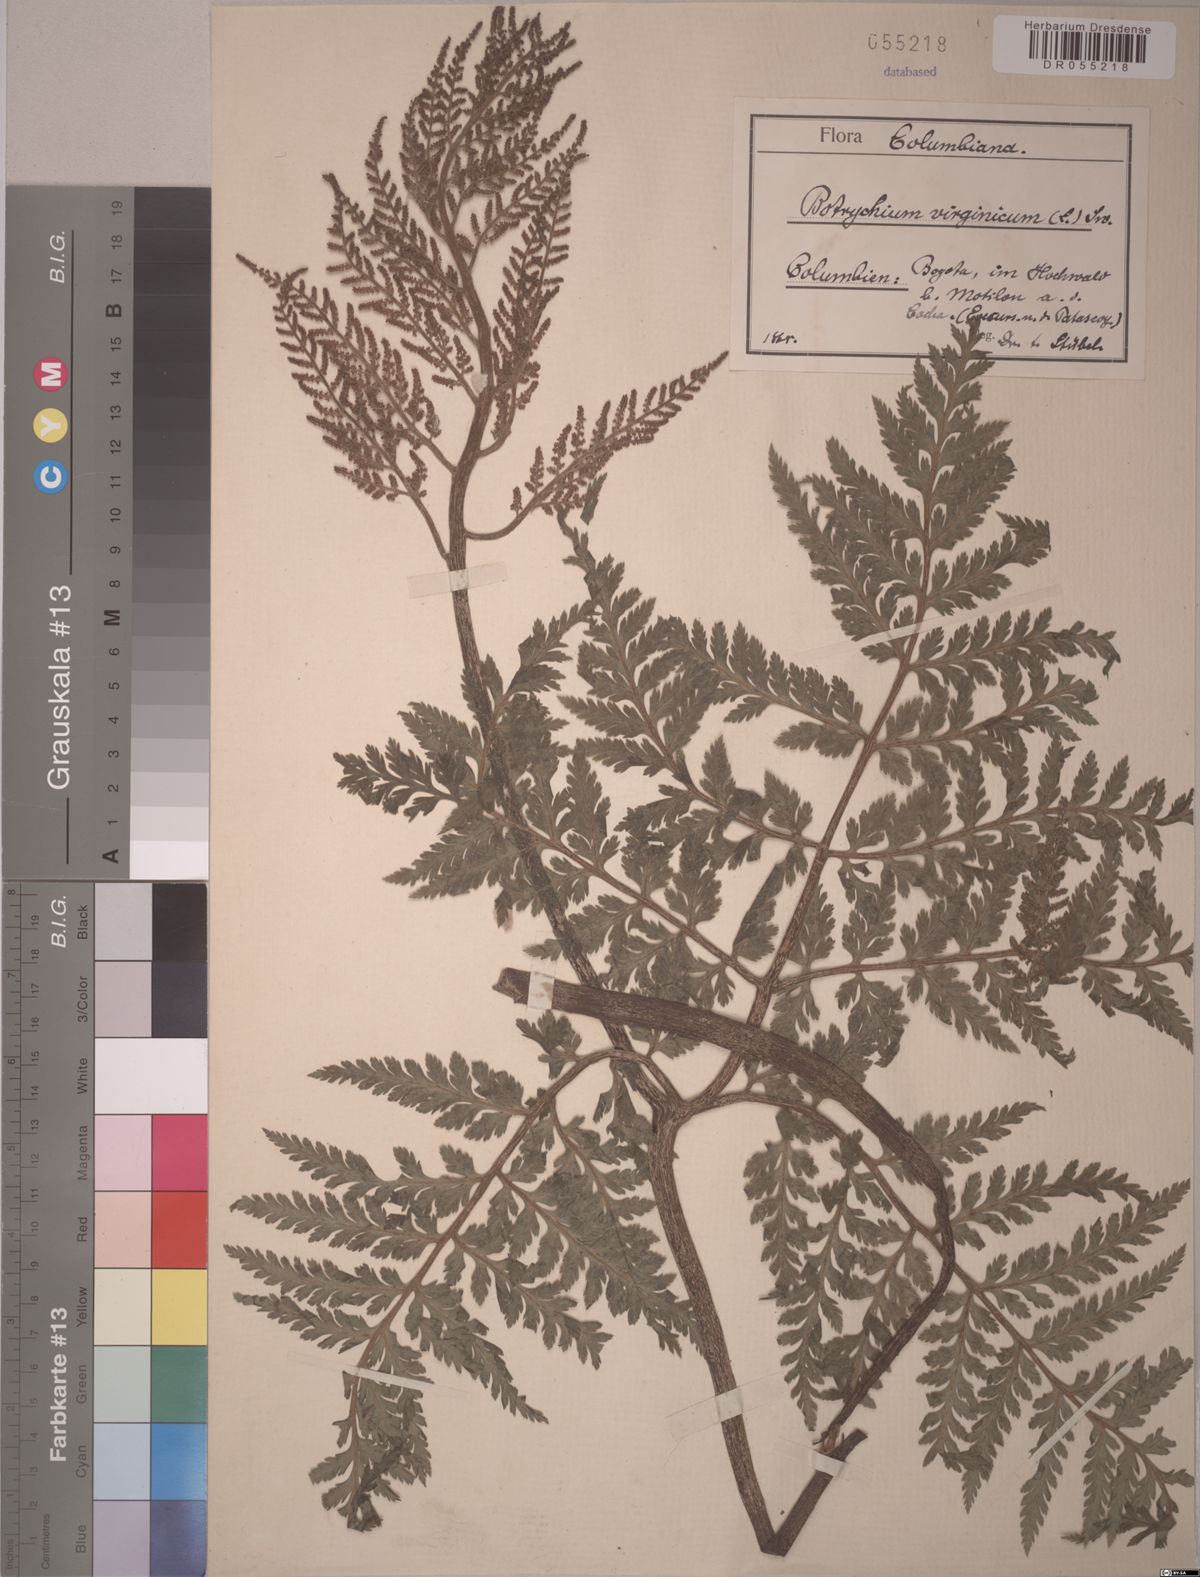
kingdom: Plantae
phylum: Tracheophyta
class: Polypodiopsida
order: Ophioglossales
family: Ophioglossaceae
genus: Botrypus
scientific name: Botrypus virginianus
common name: Common grapefern
